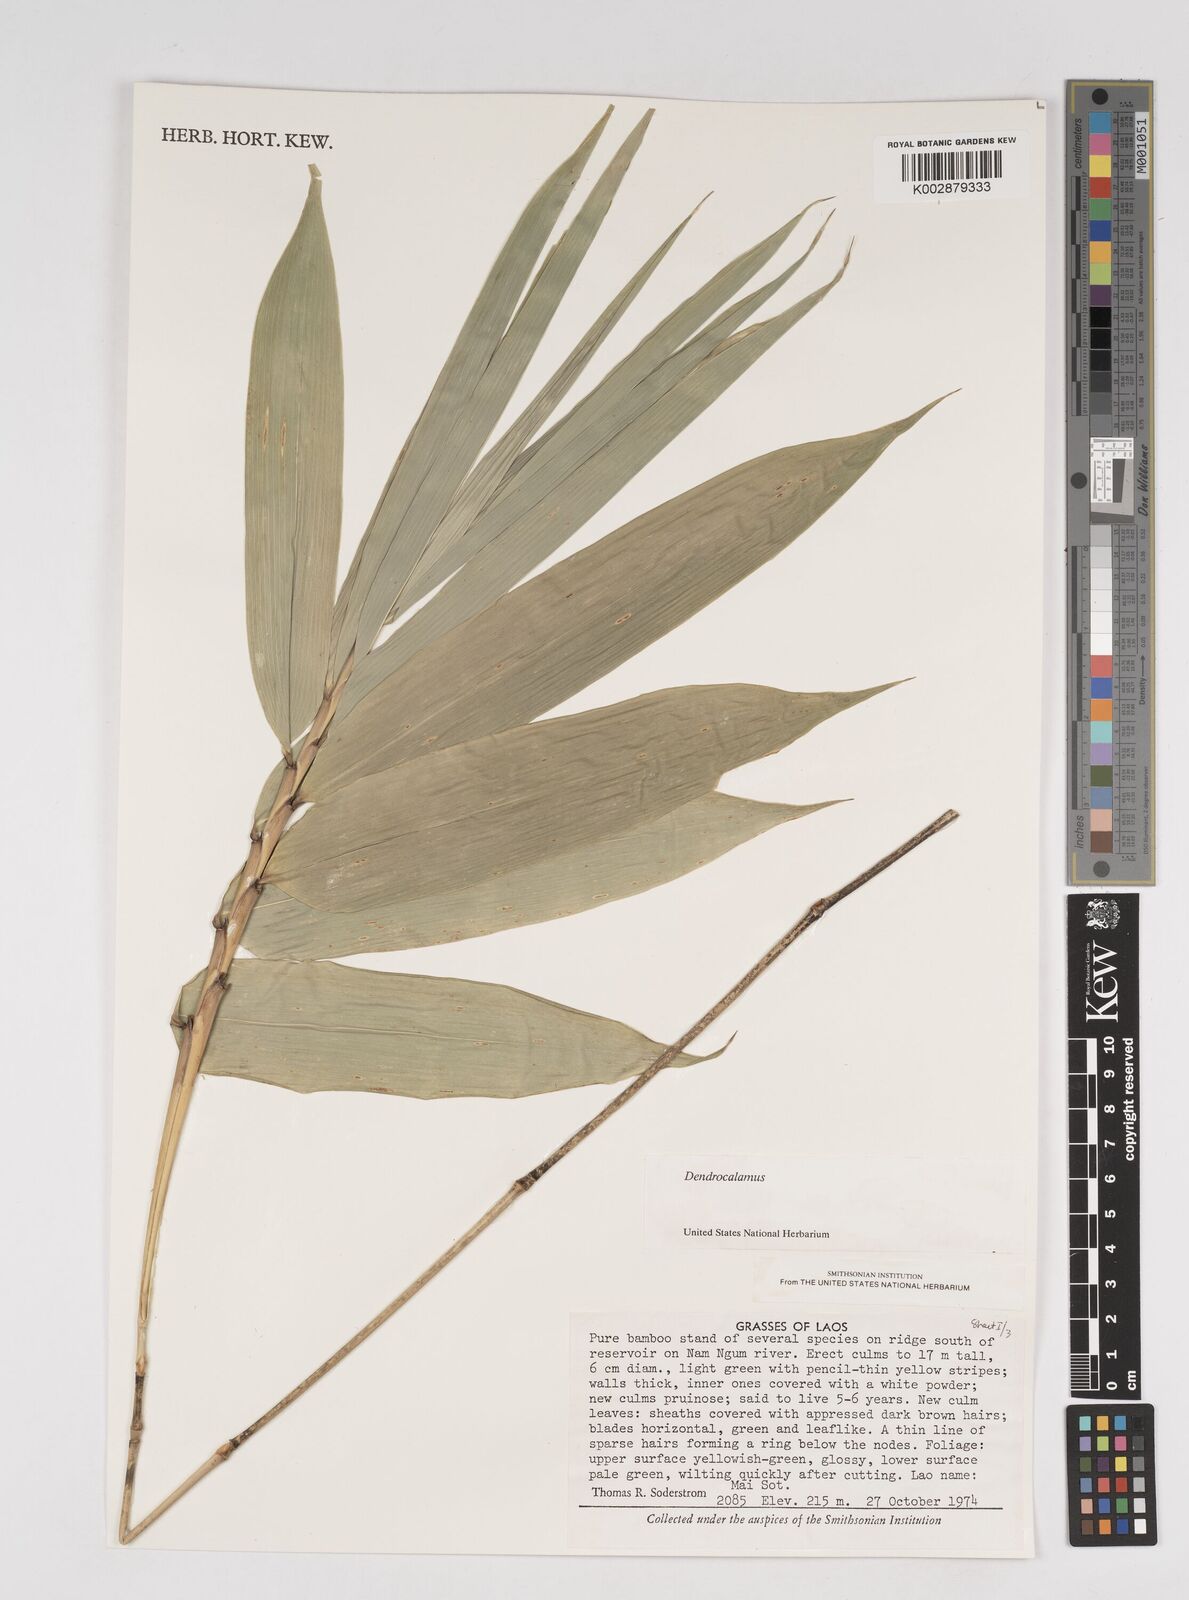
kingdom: Plantae
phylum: Tracheophyta
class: Liliopsida
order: Poales
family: Poaceae
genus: Dendrocalamus
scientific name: Dendrocalamus
